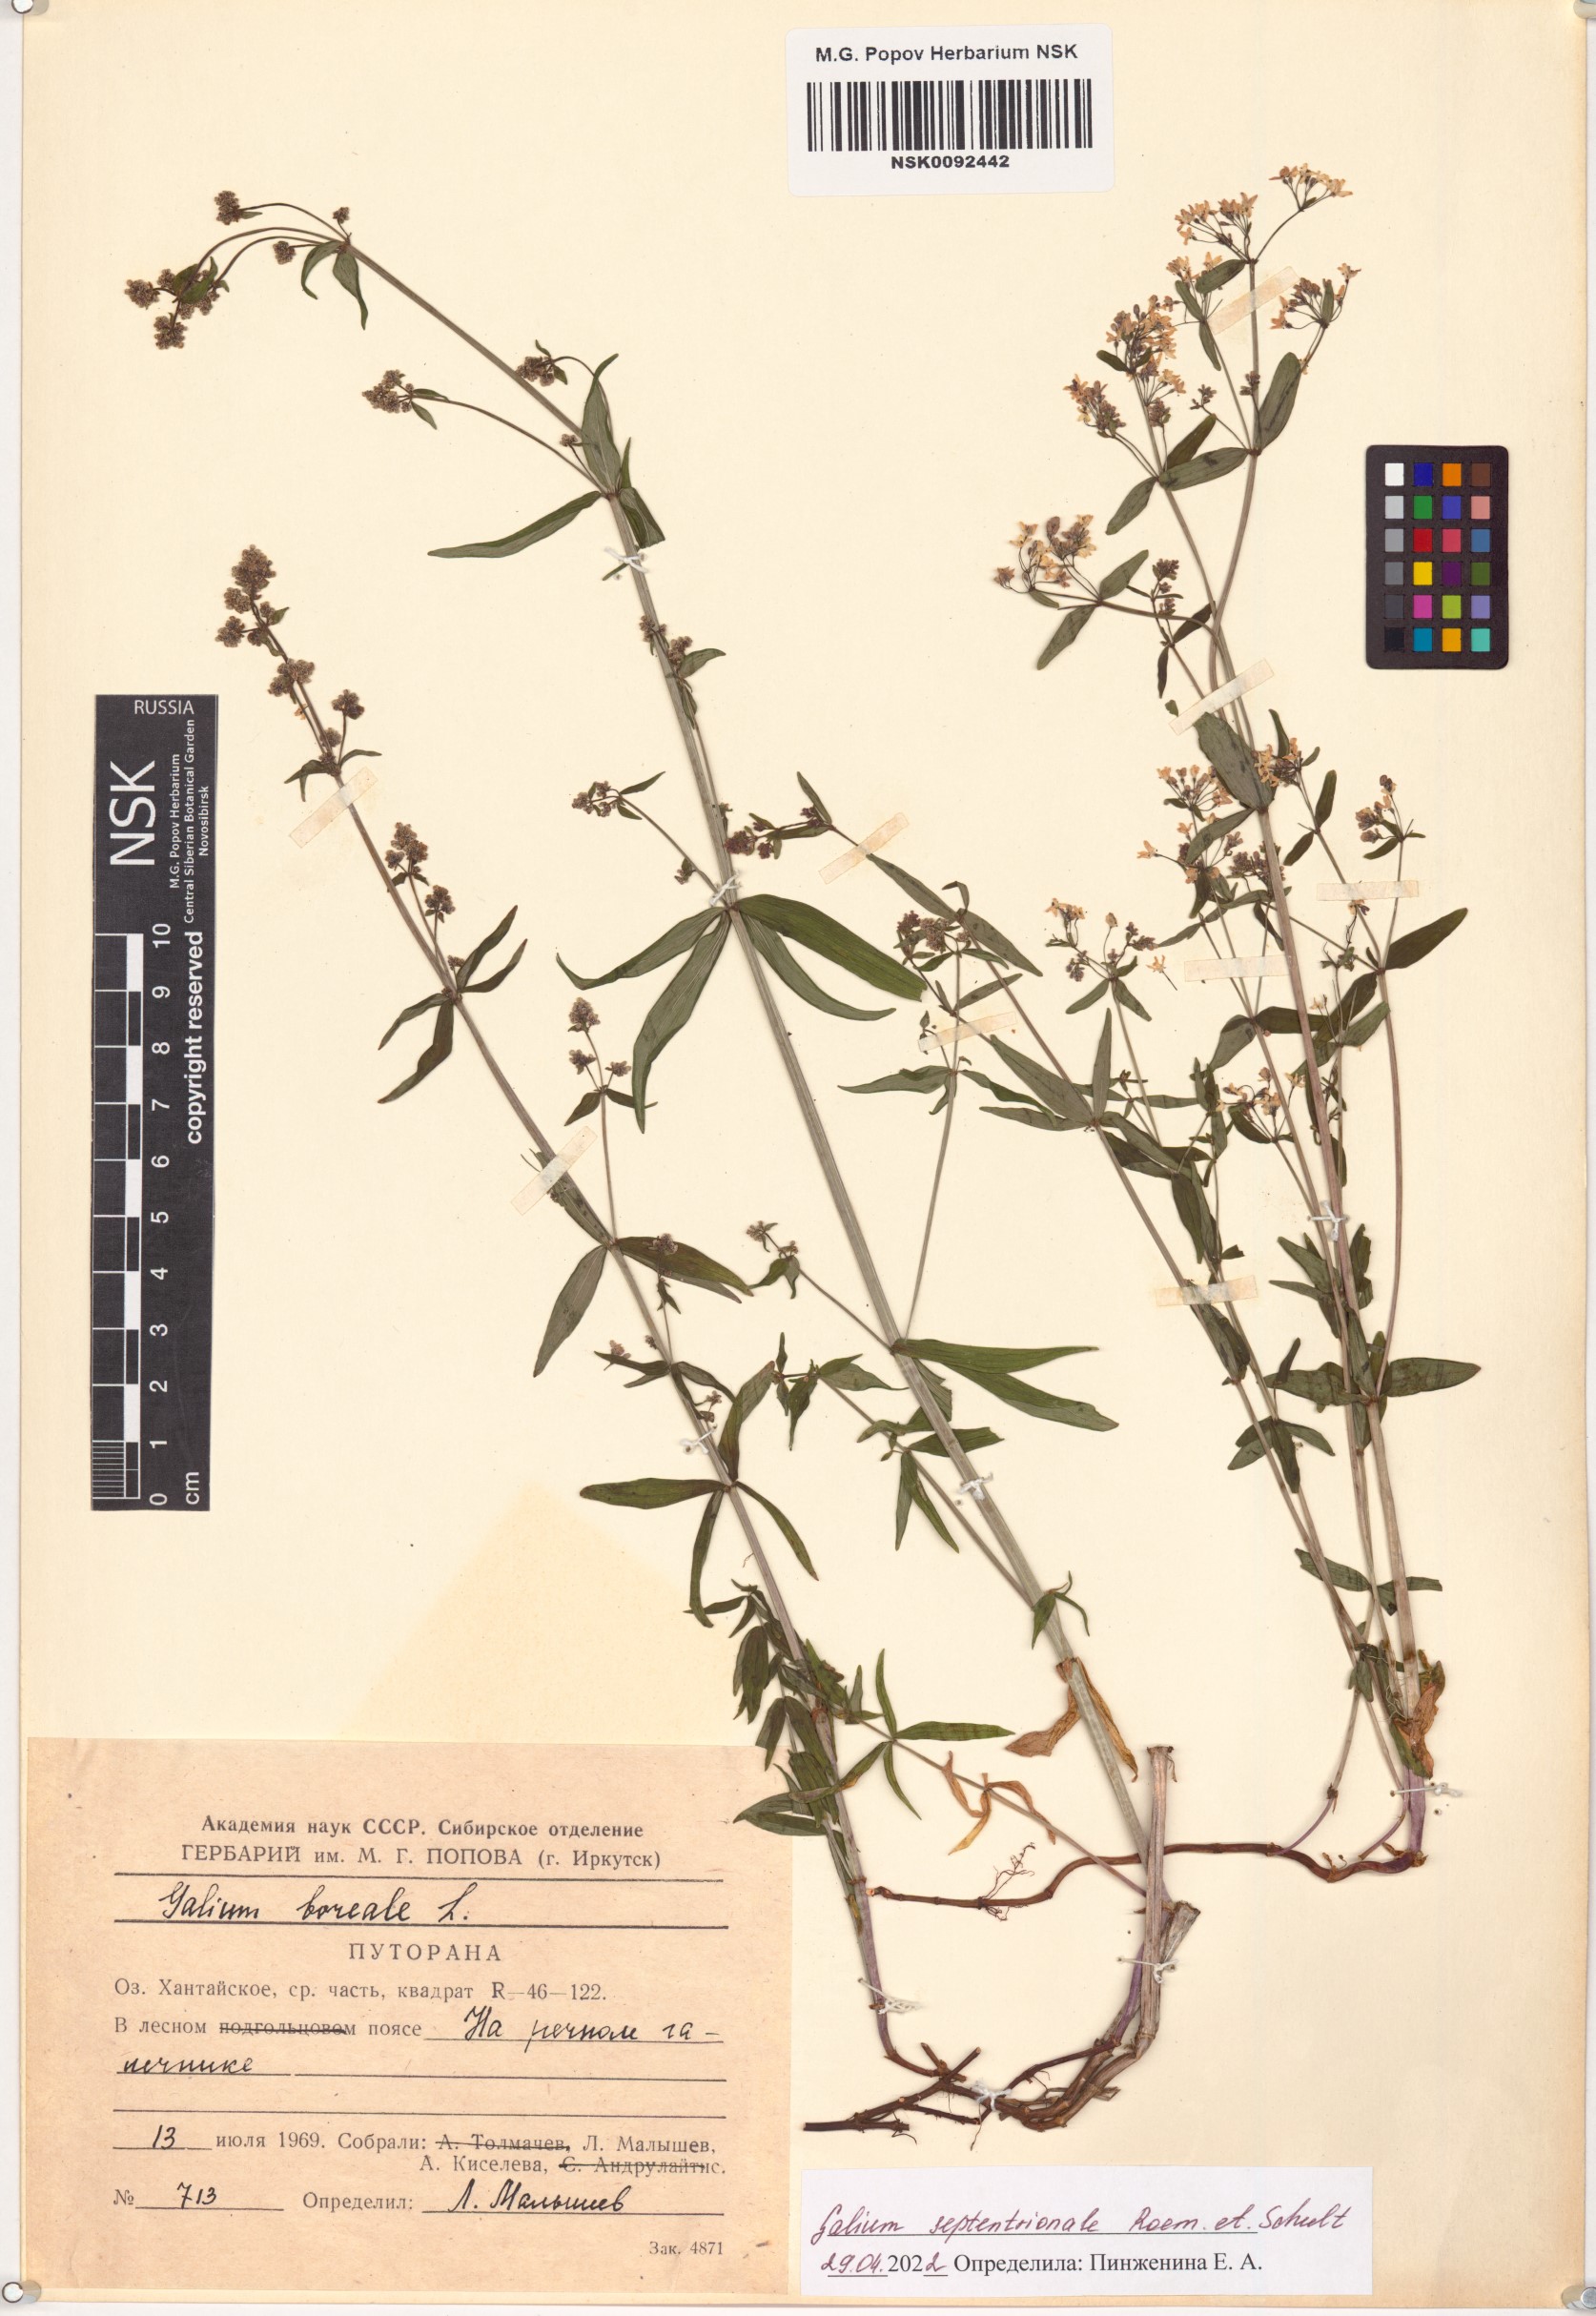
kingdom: Plantae
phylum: Tracheophyta
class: Magnoliopsida
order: Gentianales
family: Rubiaceae
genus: Galium
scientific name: Galium boreale
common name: Northern bedstraw
